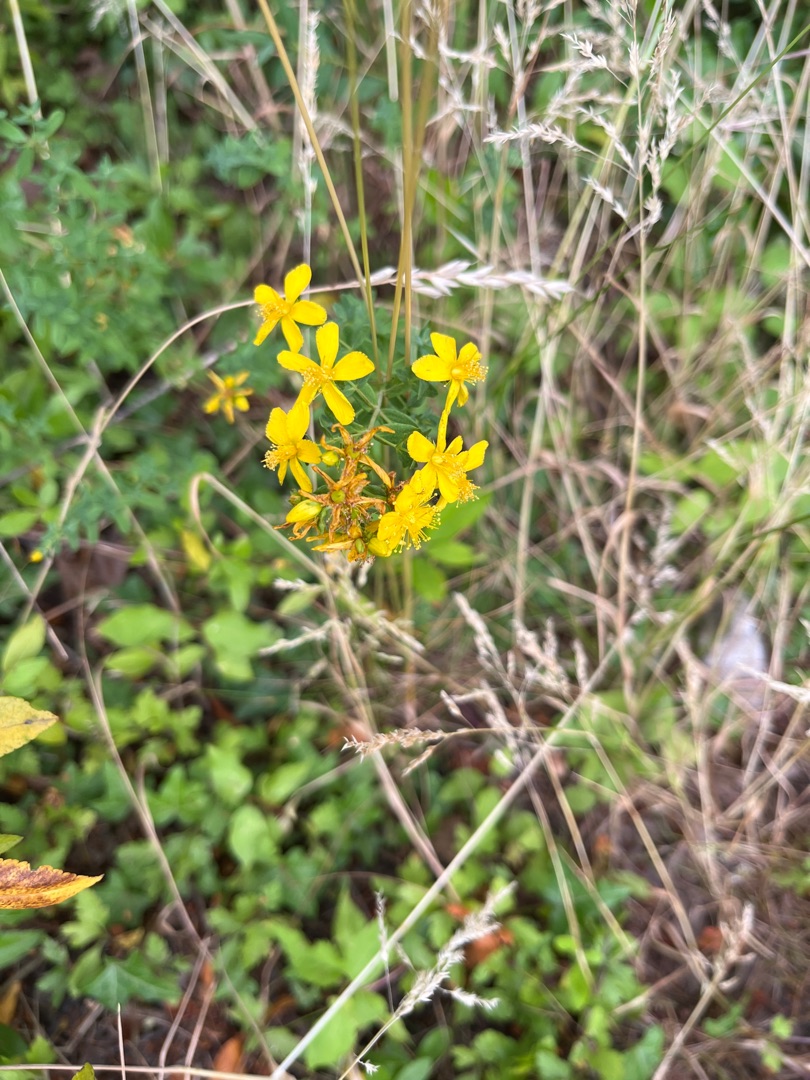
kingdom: Plantae
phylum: Tracheophyta
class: Magnoliopsida
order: Malpighiales
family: Hypericaceae
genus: Hypericum
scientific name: Hypericum perforatum
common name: Prikbladet perikon
